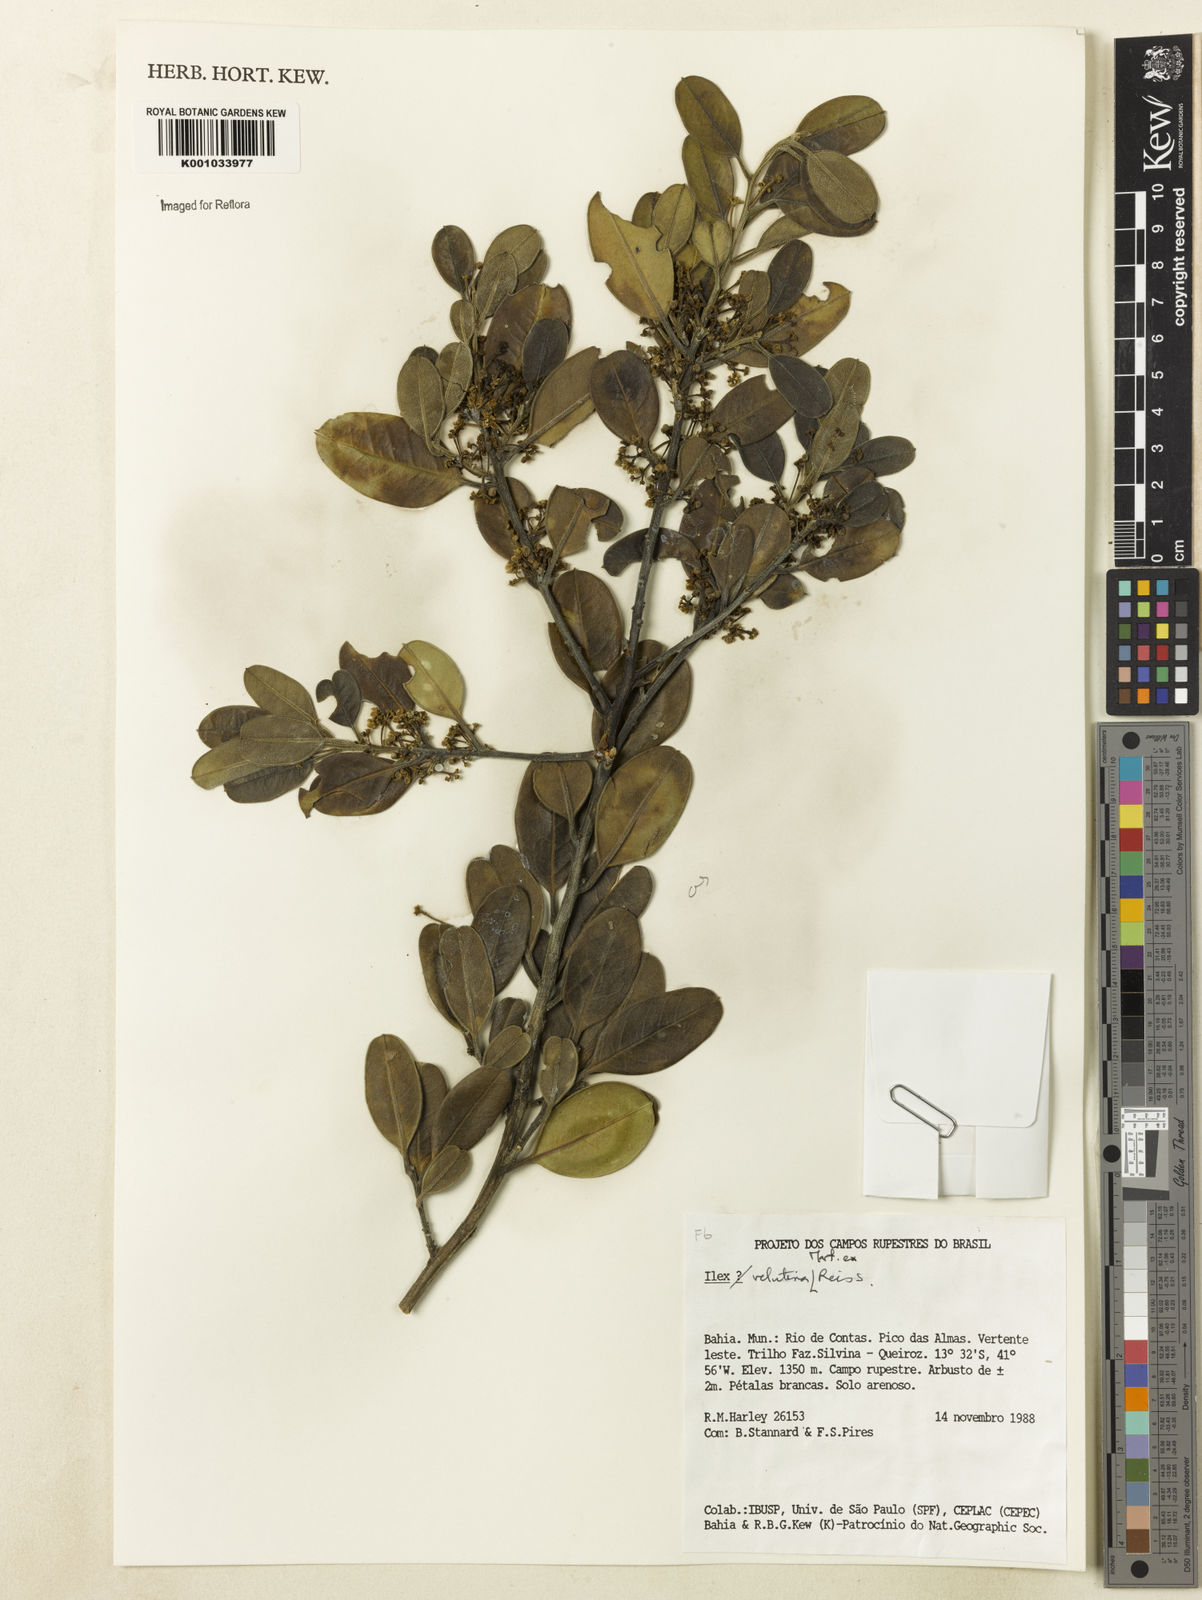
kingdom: Plantae
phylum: Tracheophyta
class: Magnoliopsida
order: Aquifoliales
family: Aquifoliaceae
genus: Ilex
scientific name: Ilex velutina
